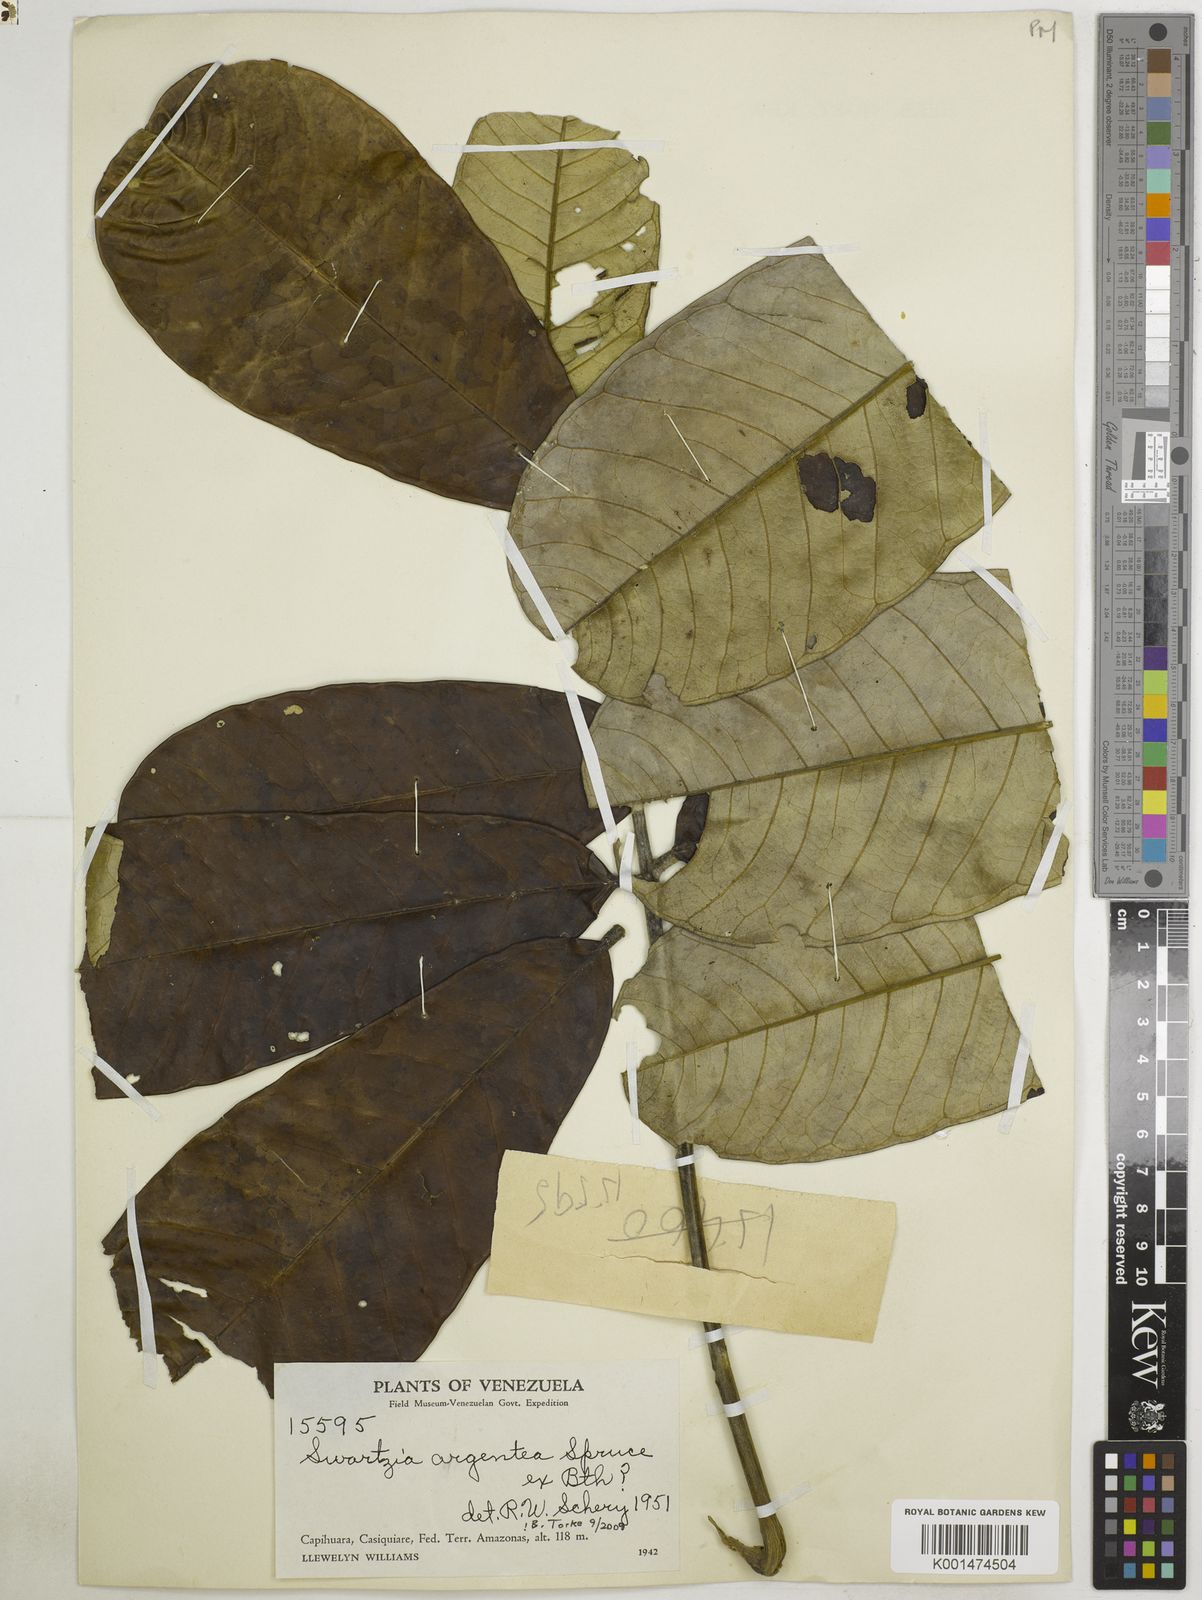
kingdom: Plantae
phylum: Tracheophyta
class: Magnoliopsida
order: Fabales
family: Fabaceae
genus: Swartzia
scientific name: Swartzia argentea
